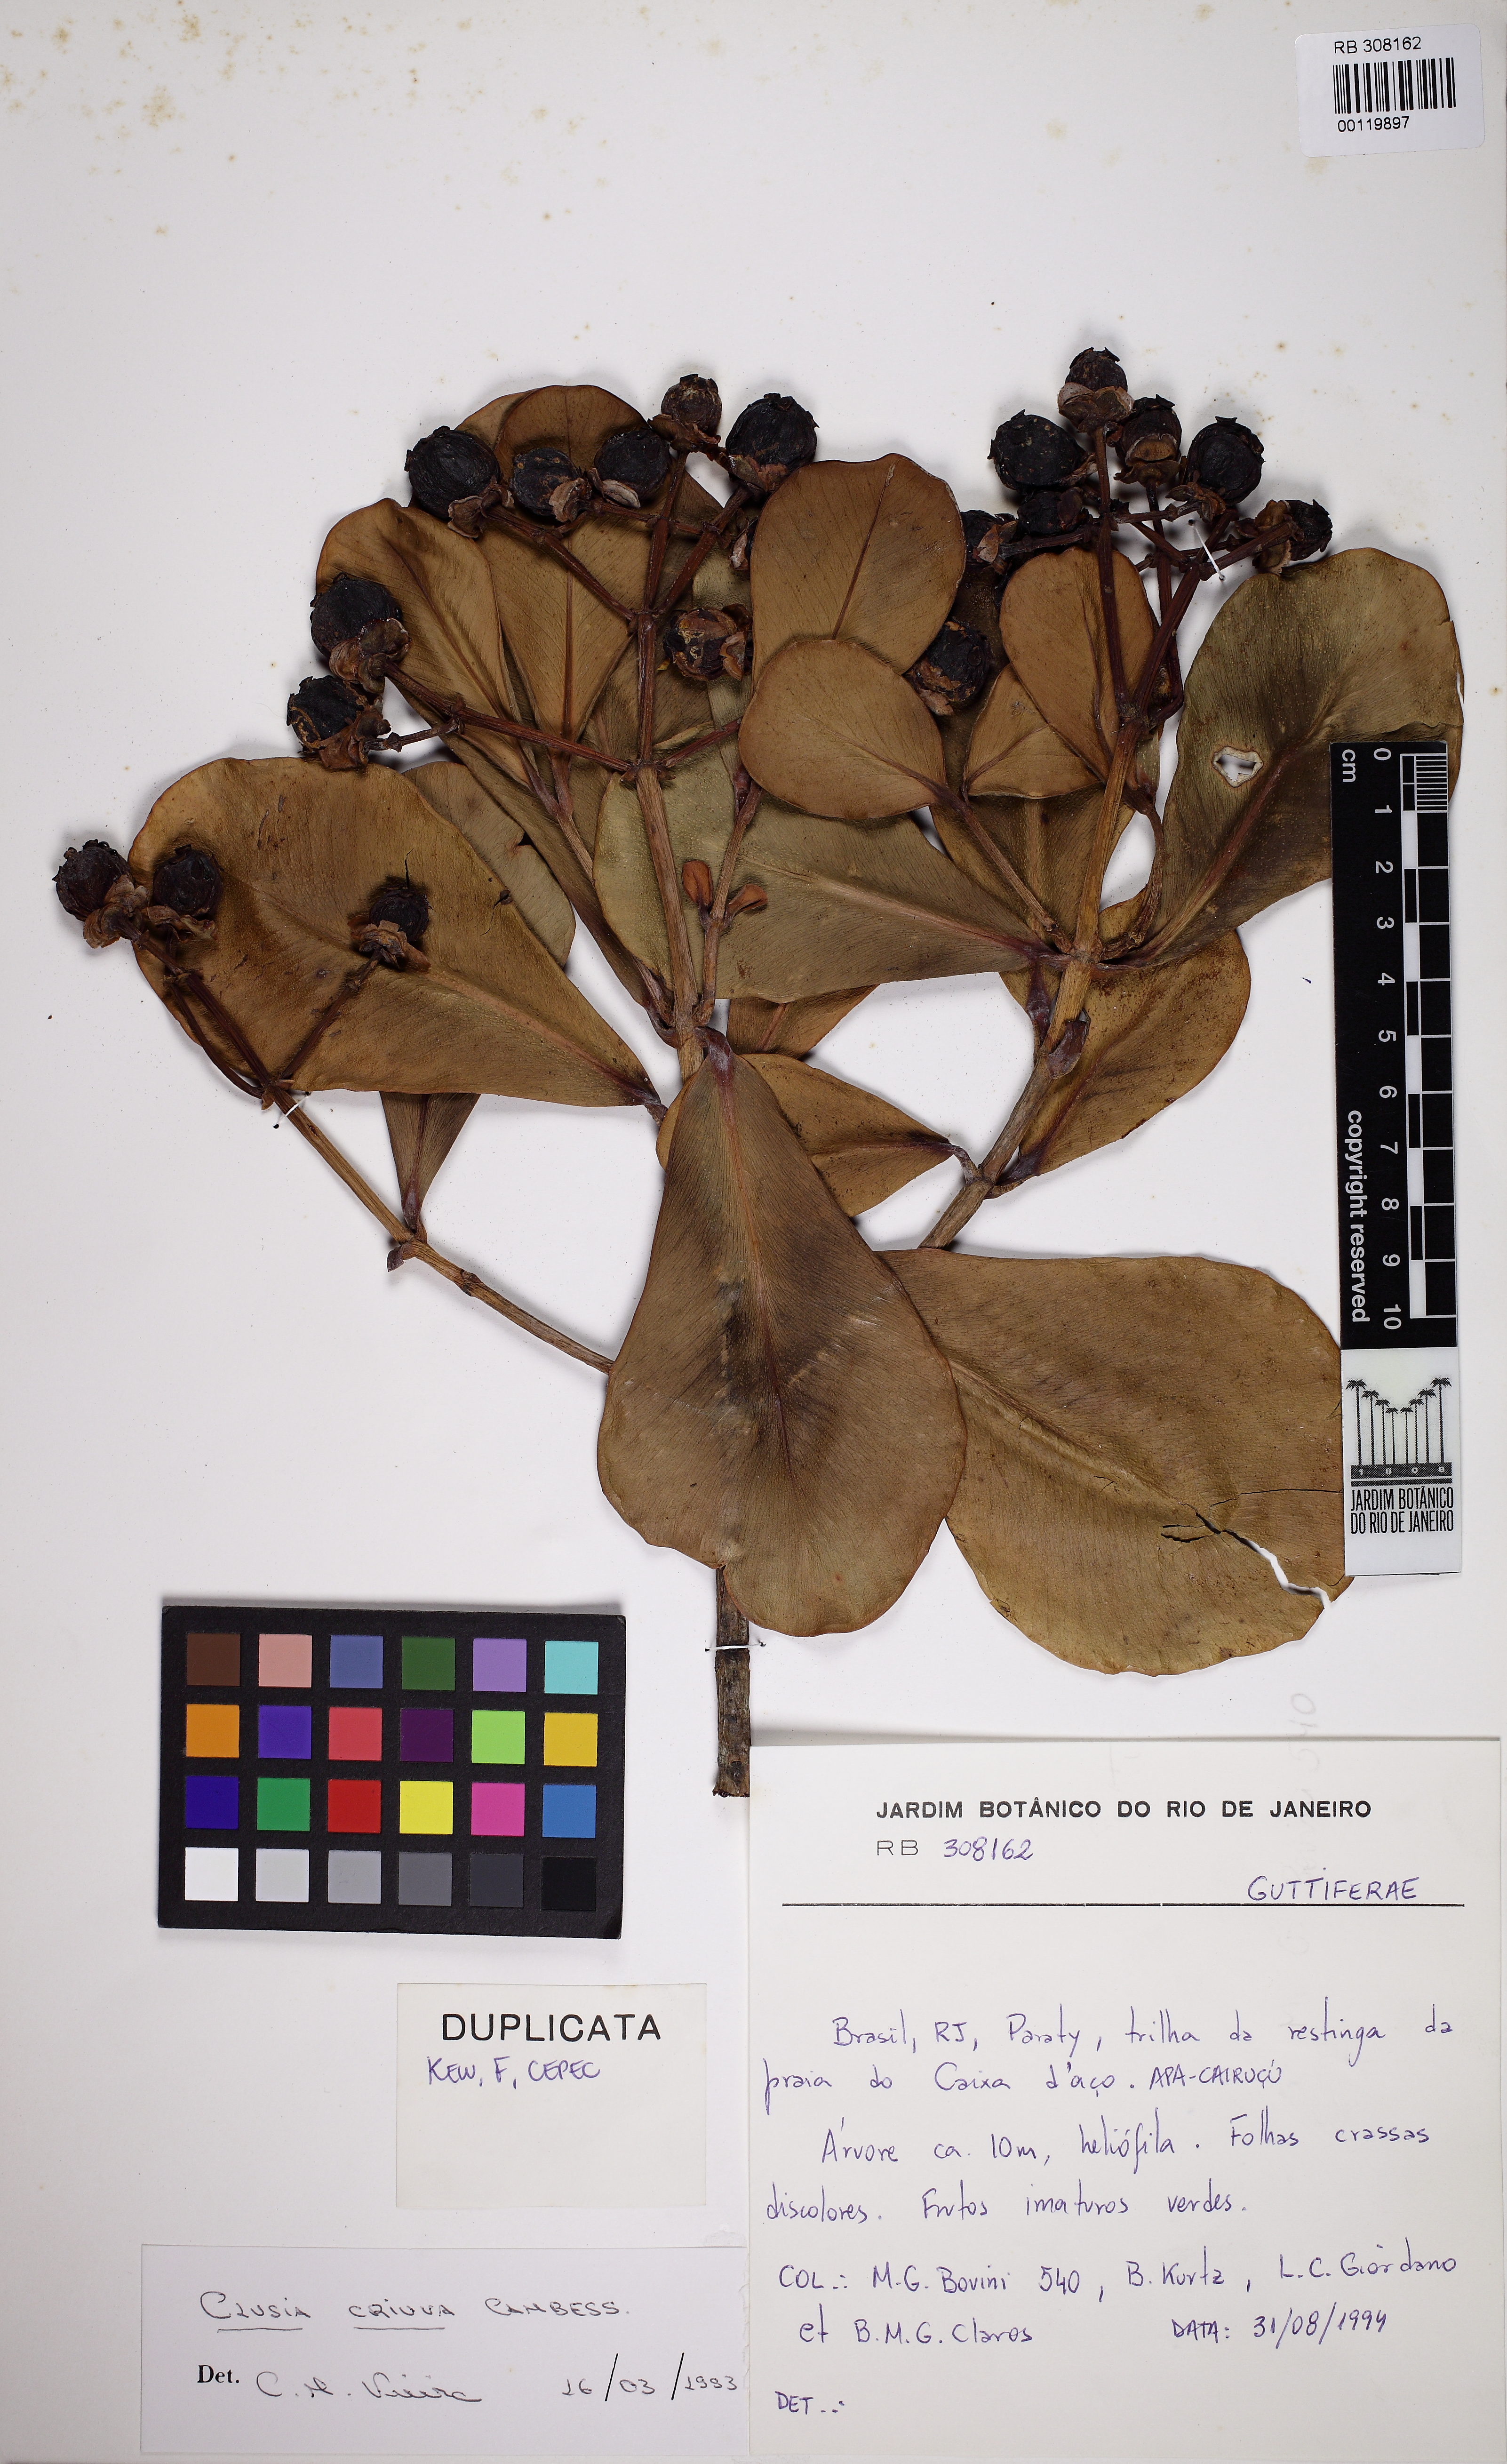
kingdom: Plantae
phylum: Tracheophyta
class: Magnoliopsida
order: Malpighiales
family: Clusiaceae
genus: Clusia
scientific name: Clusia criuva
